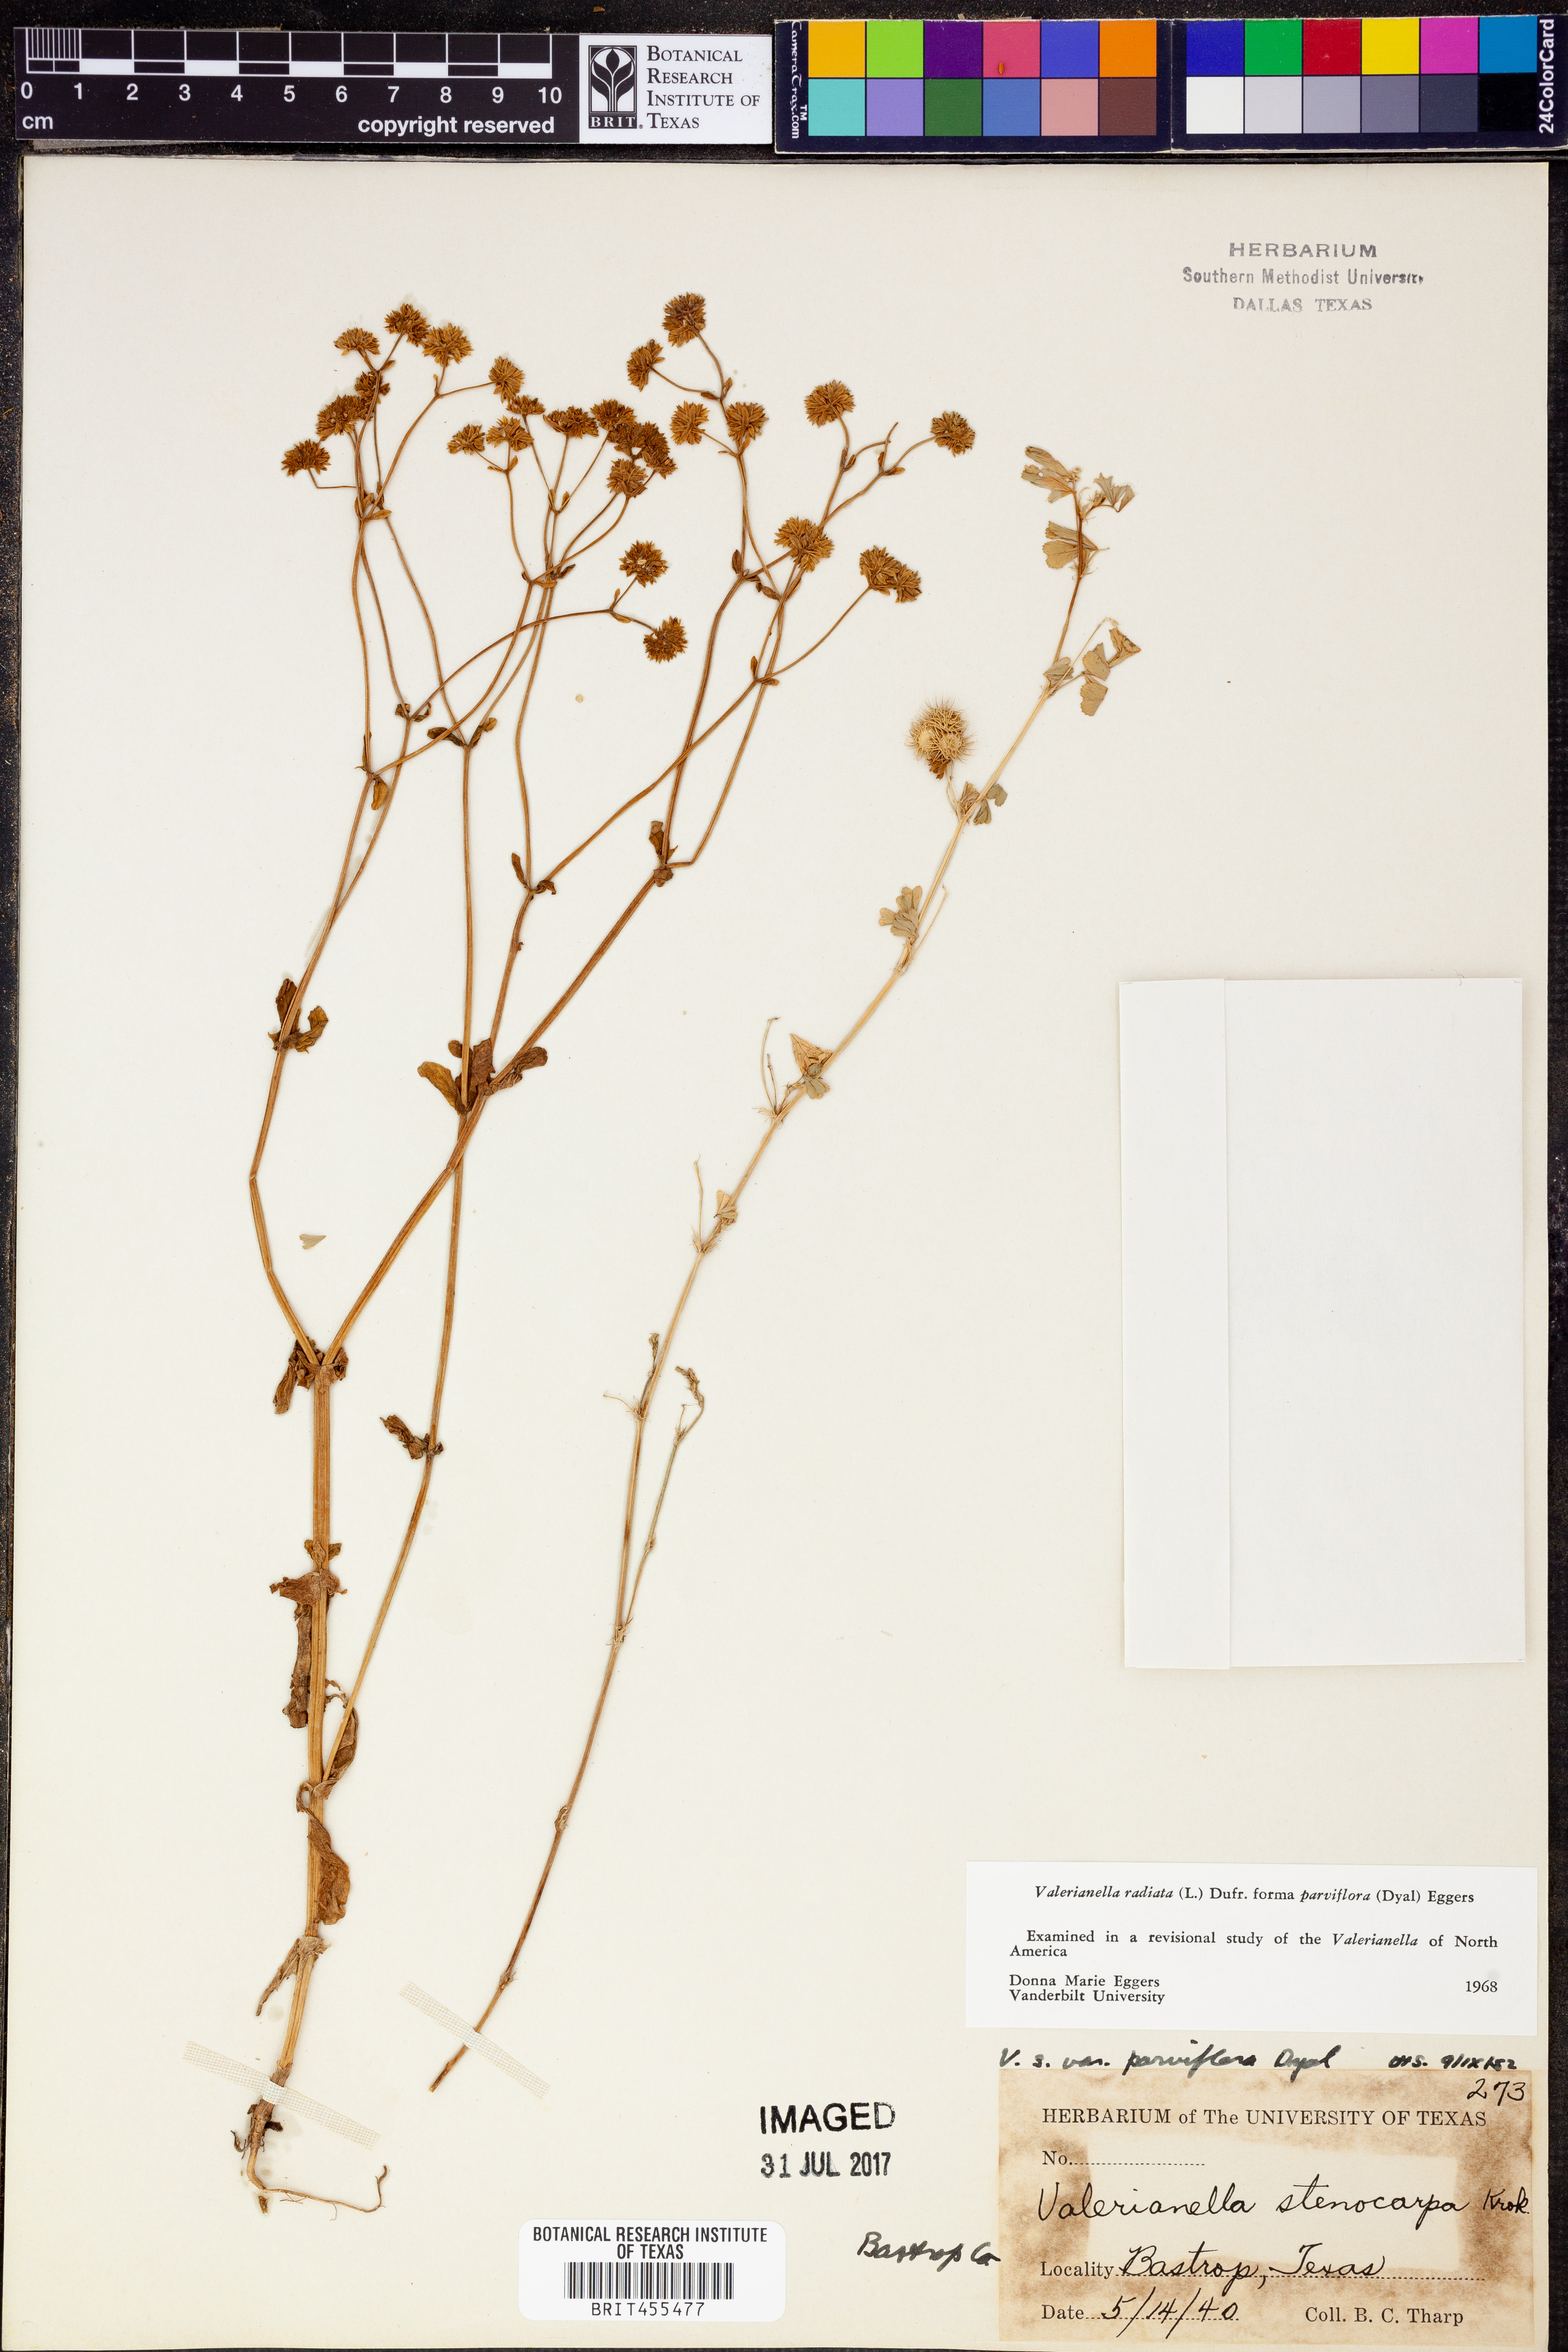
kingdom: Plantae
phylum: Tracheophyta
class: Magnoliopsida
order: Dipsacales
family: Caprifoliaceae
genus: Valerianella
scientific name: Valerianella radiata
